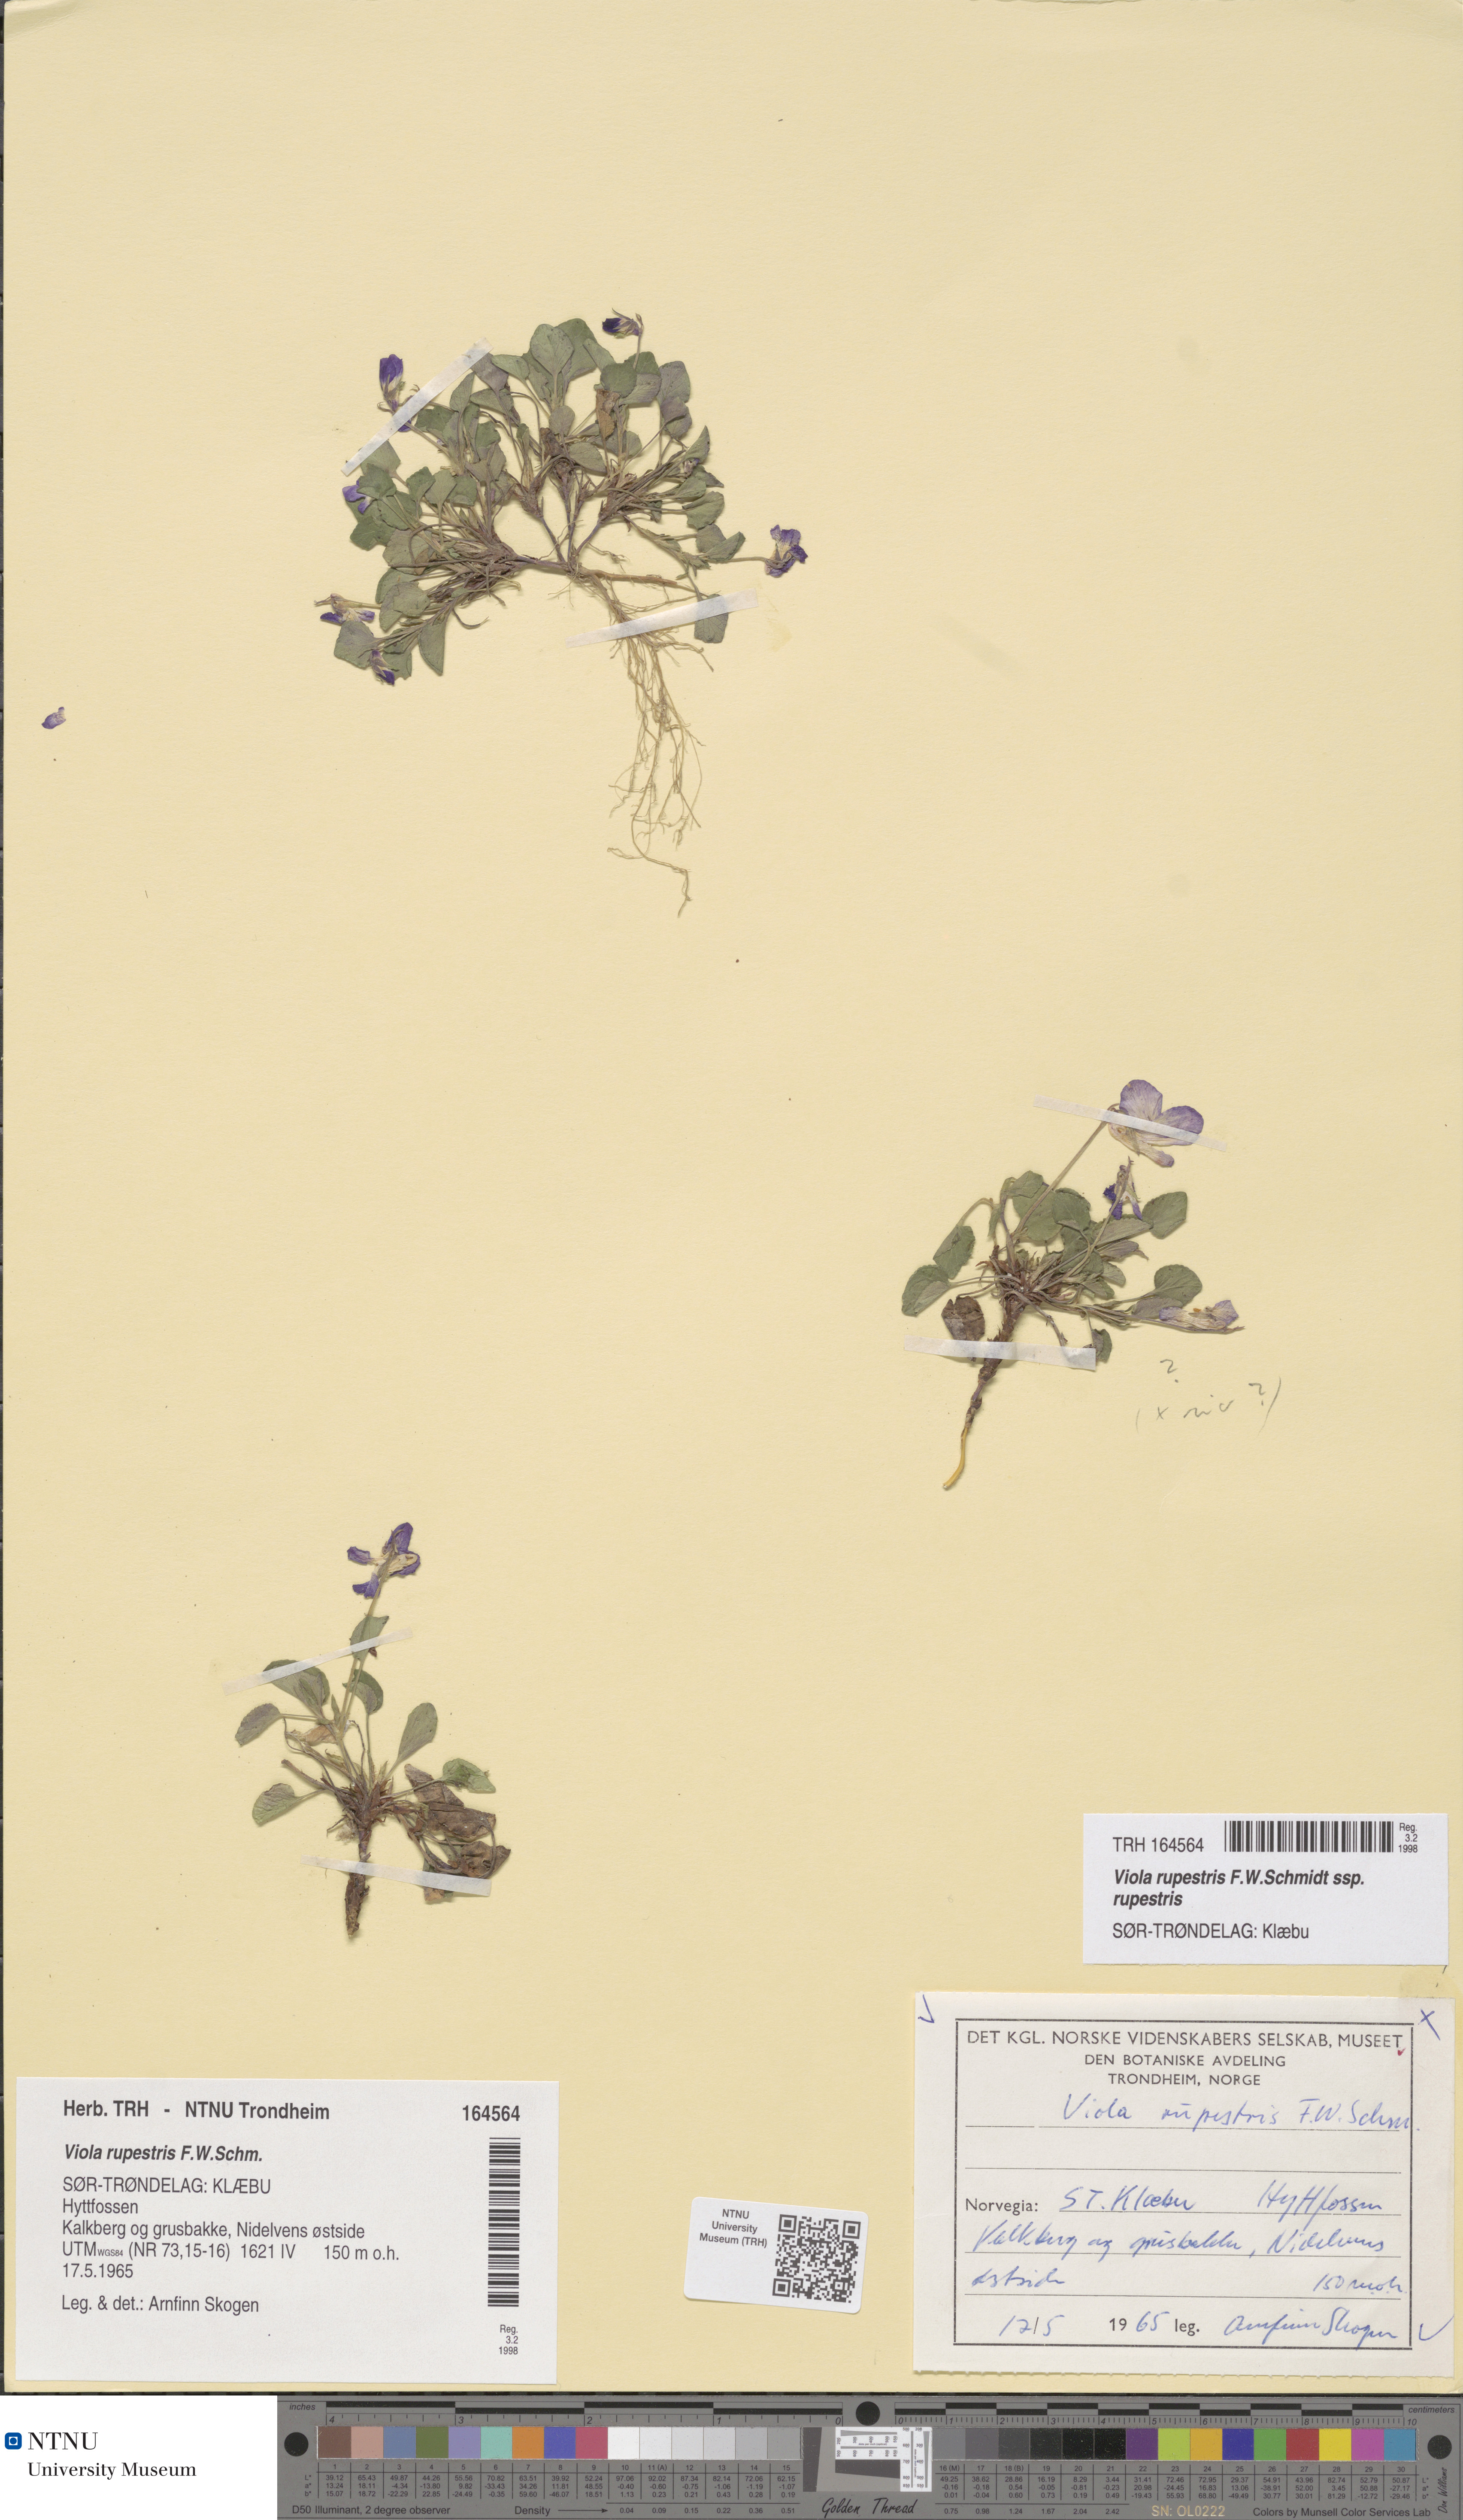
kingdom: Plantae
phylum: Tracheophyta
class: Magnoliopsida
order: Malpighiales
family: Violaceae
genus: Viola
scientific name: Viola rupestris
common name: Teesdale violet
